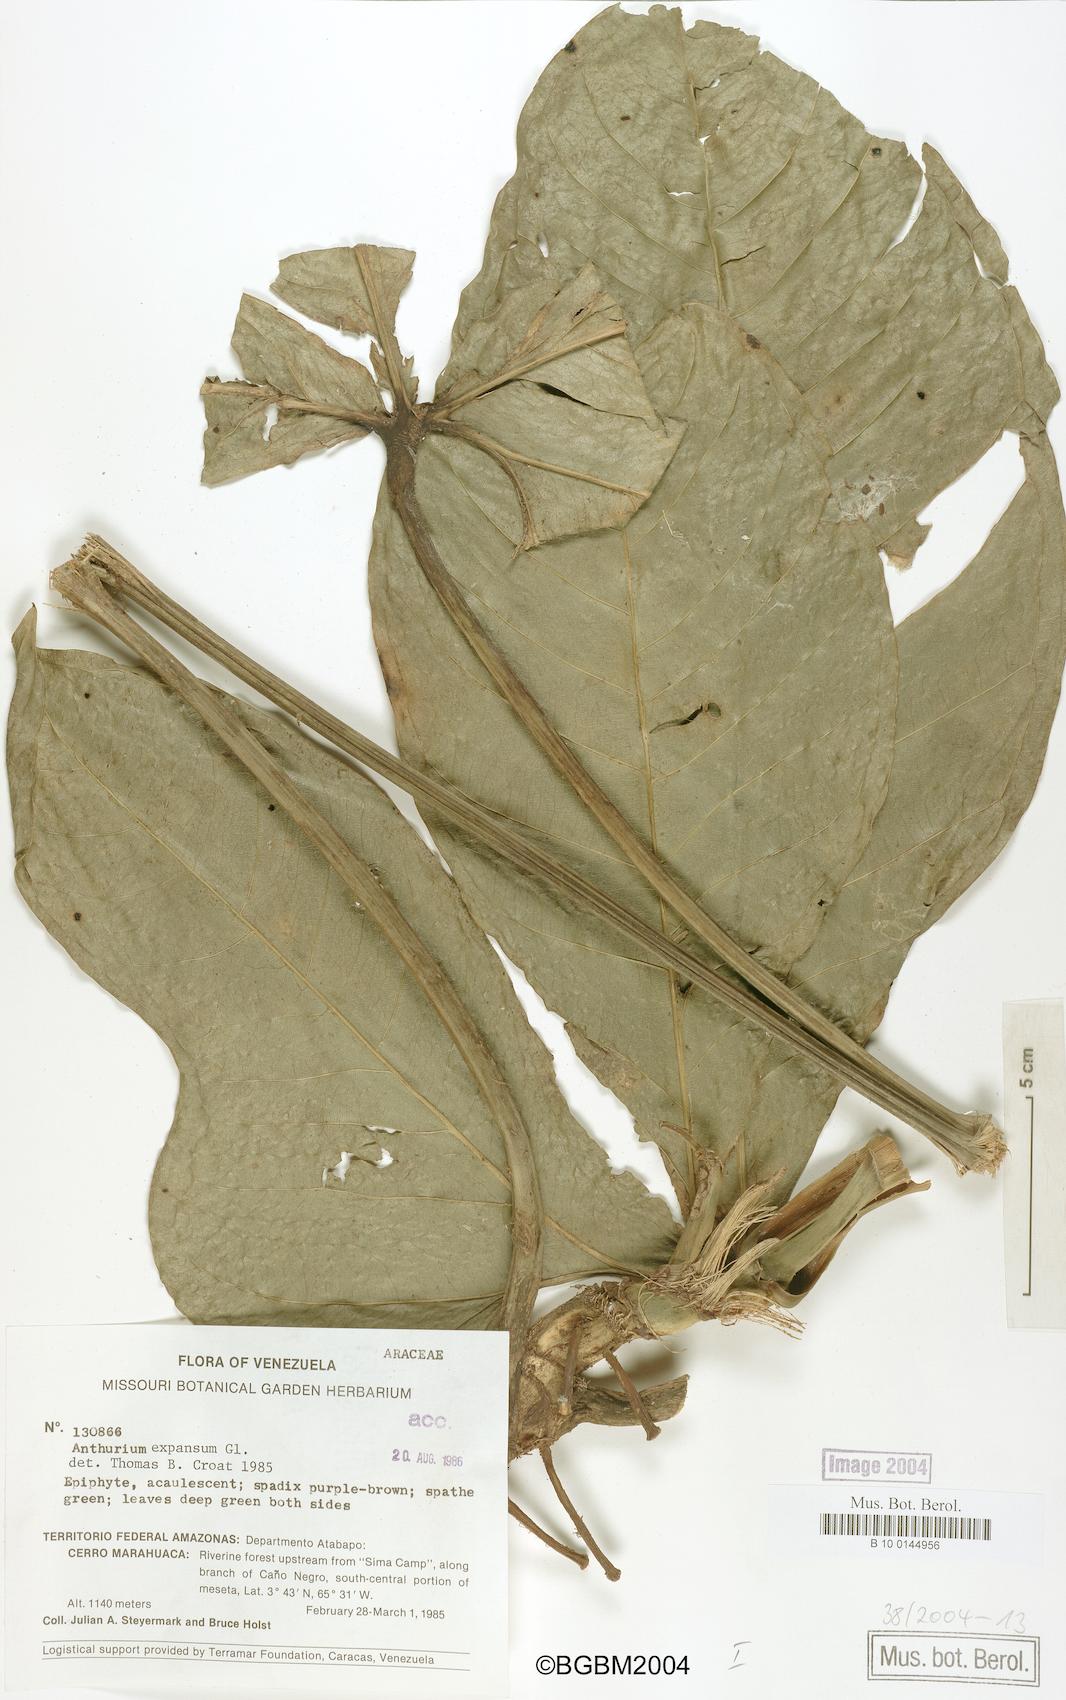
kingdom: Plantae
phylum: Tracheophyta
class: Liliopsida
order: Alismatales
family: Araceae
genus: Anthurium
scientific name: Anthurium expansum
